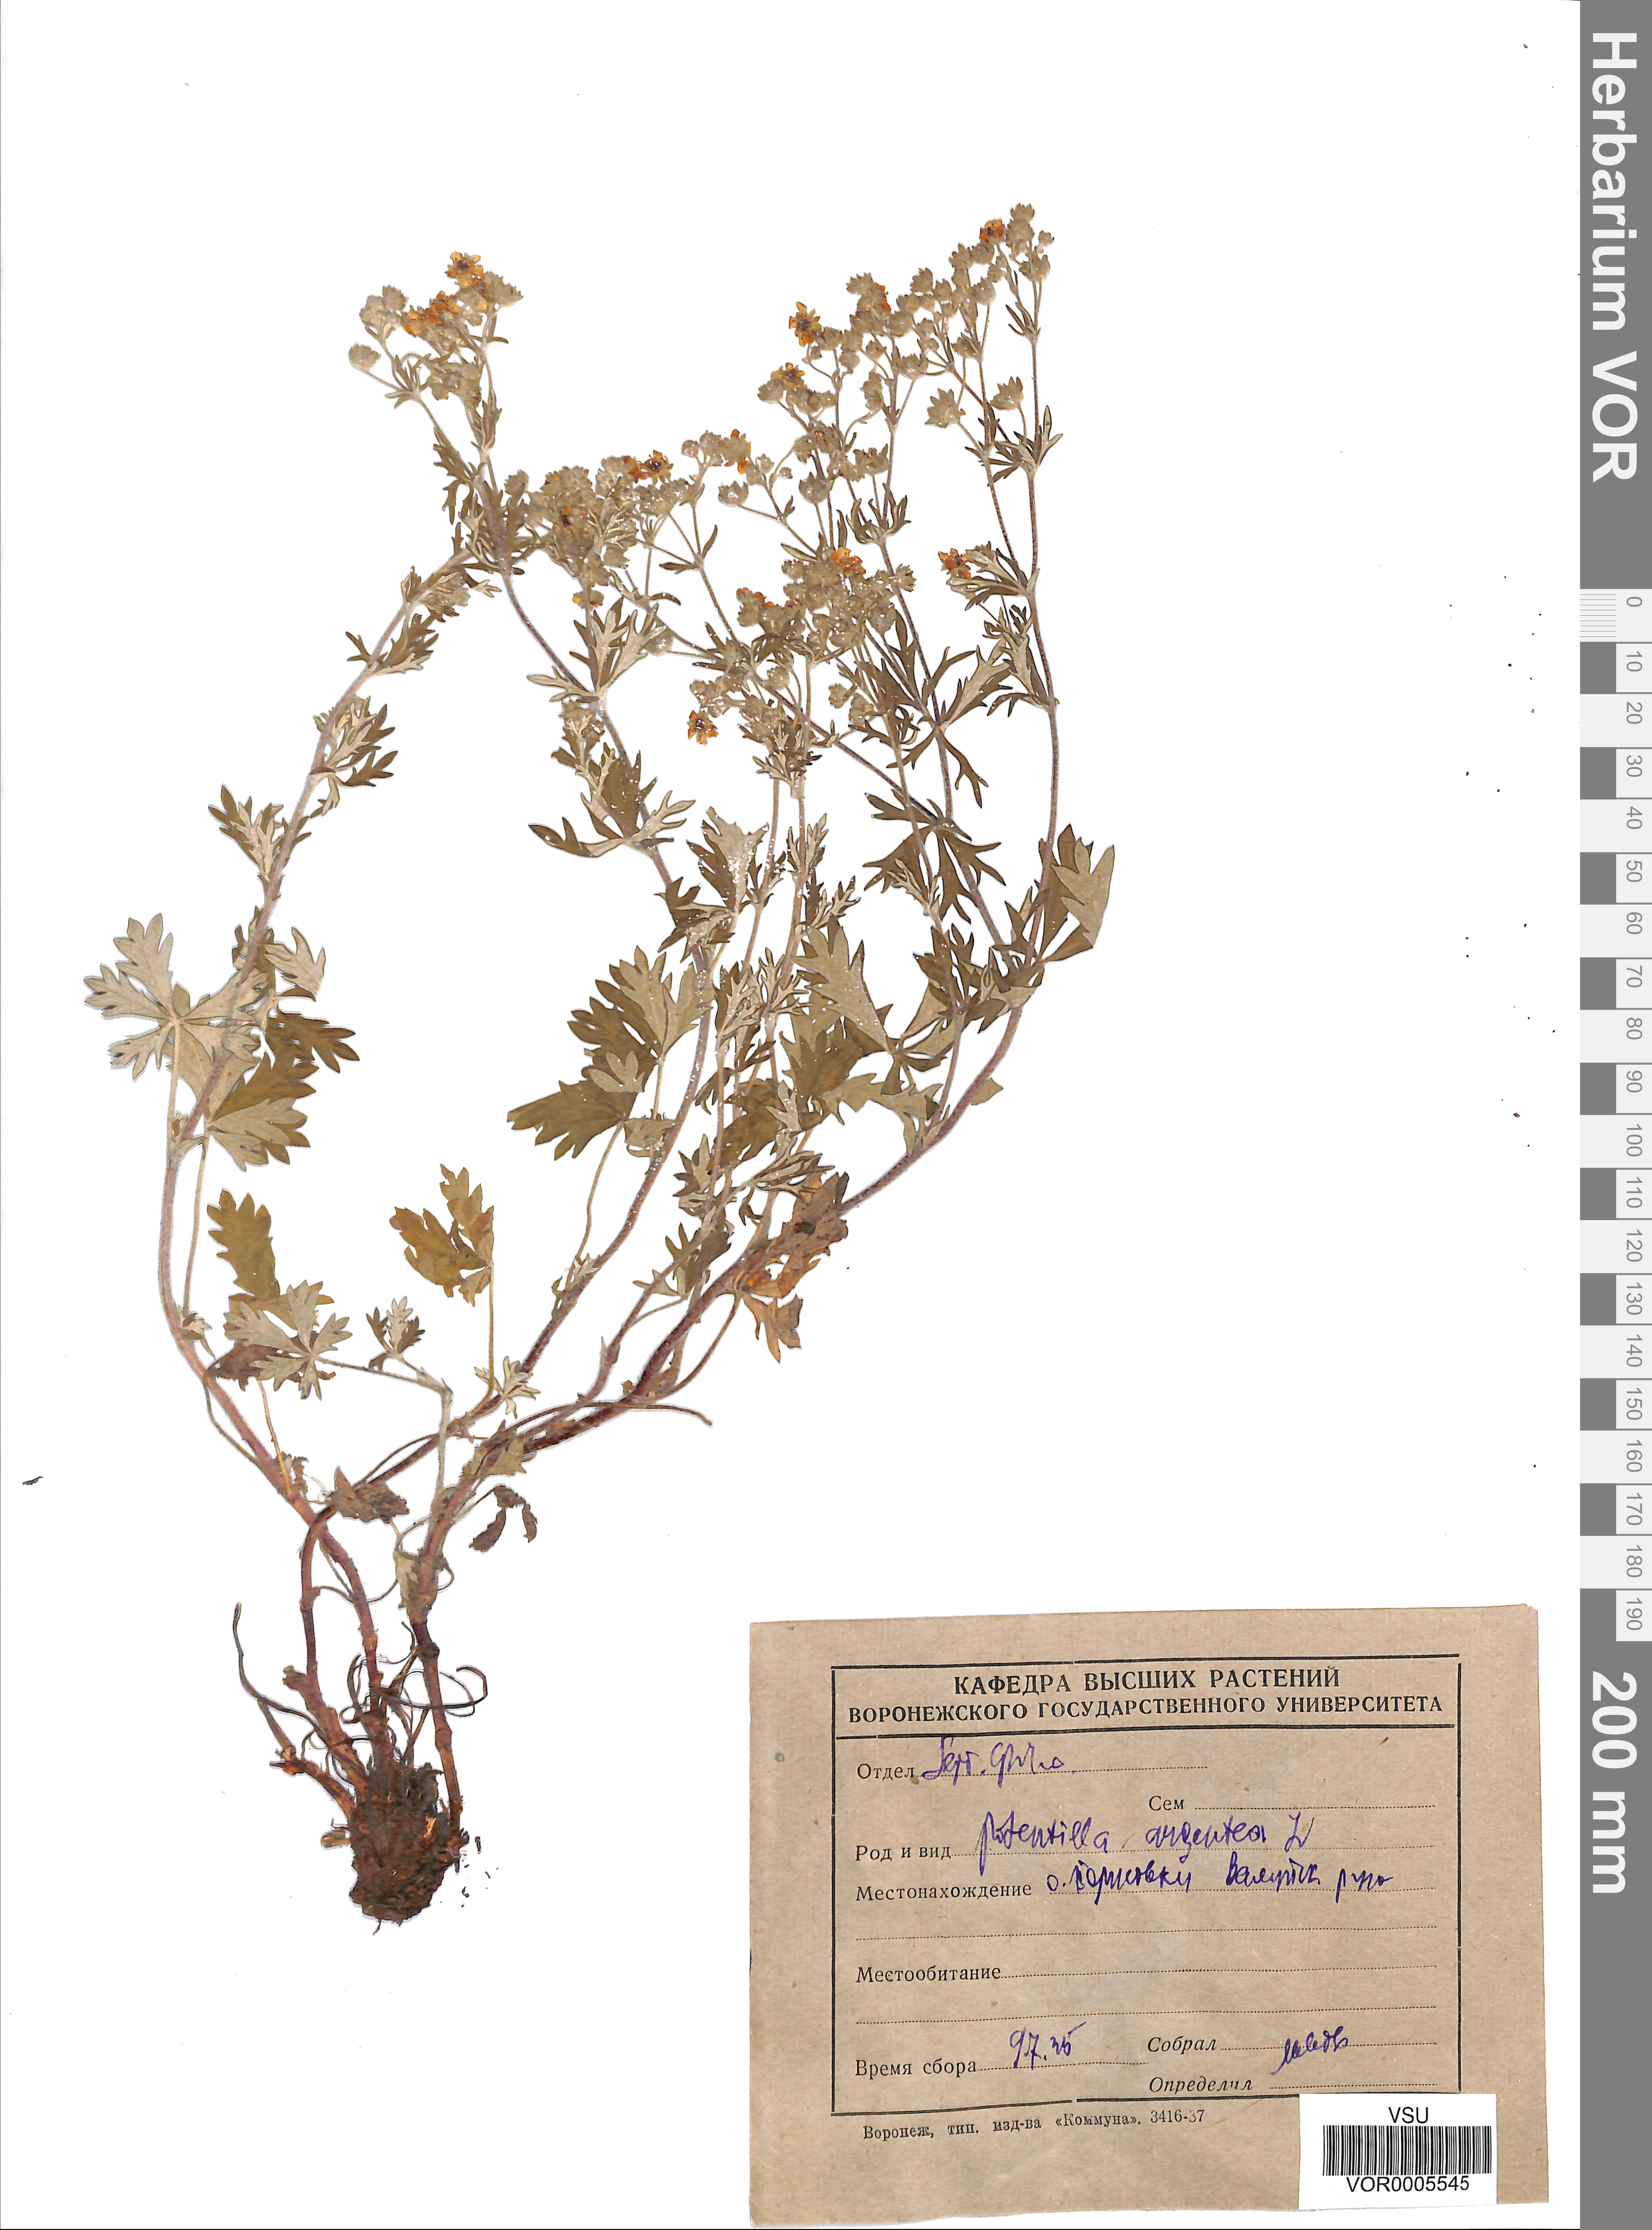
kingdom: Plantae
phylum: Tracheophyta
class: Magnoliopsida
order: Rosales
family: Rosaceae
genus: Potentilla
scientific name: Potentilla argentea
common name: Hoary cinquefoil
